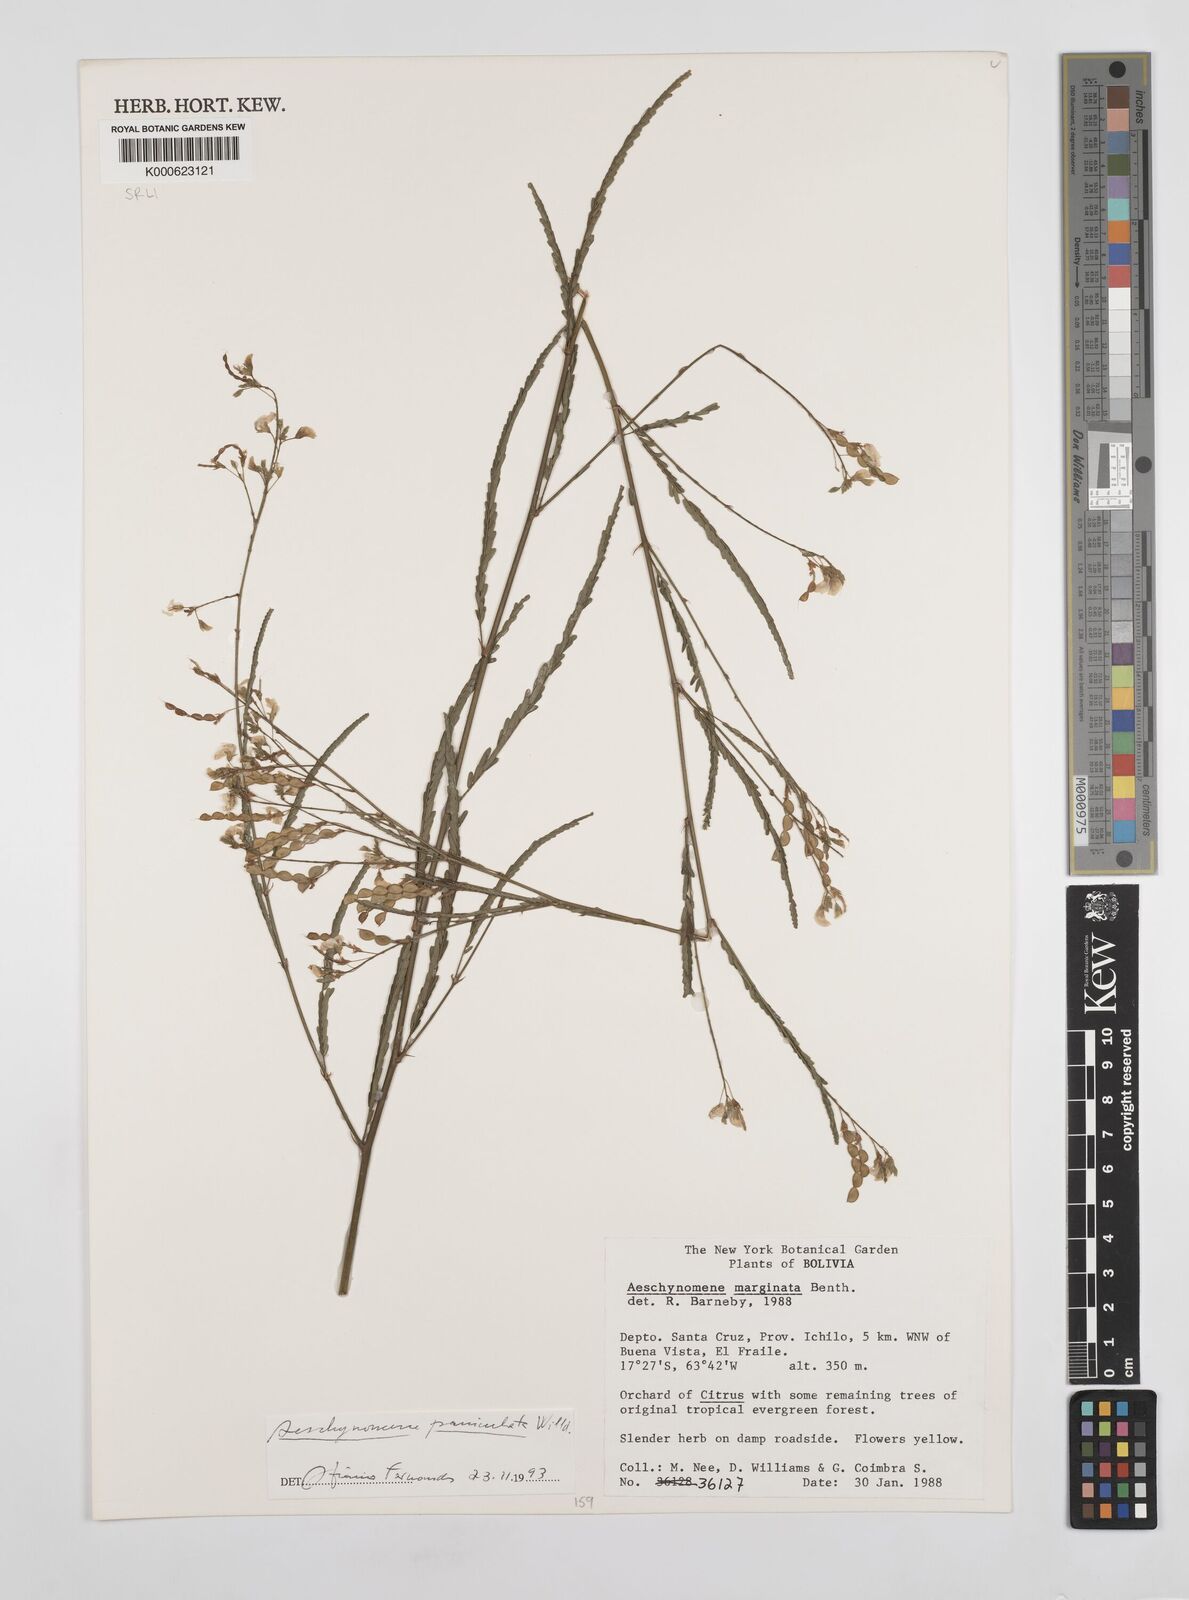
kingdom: Plantae
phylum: Tracheophyta
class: Magnoliopsida
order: Fabales
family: Fabaceae
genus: Ctenodon
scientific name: Ctenodon marginatus
